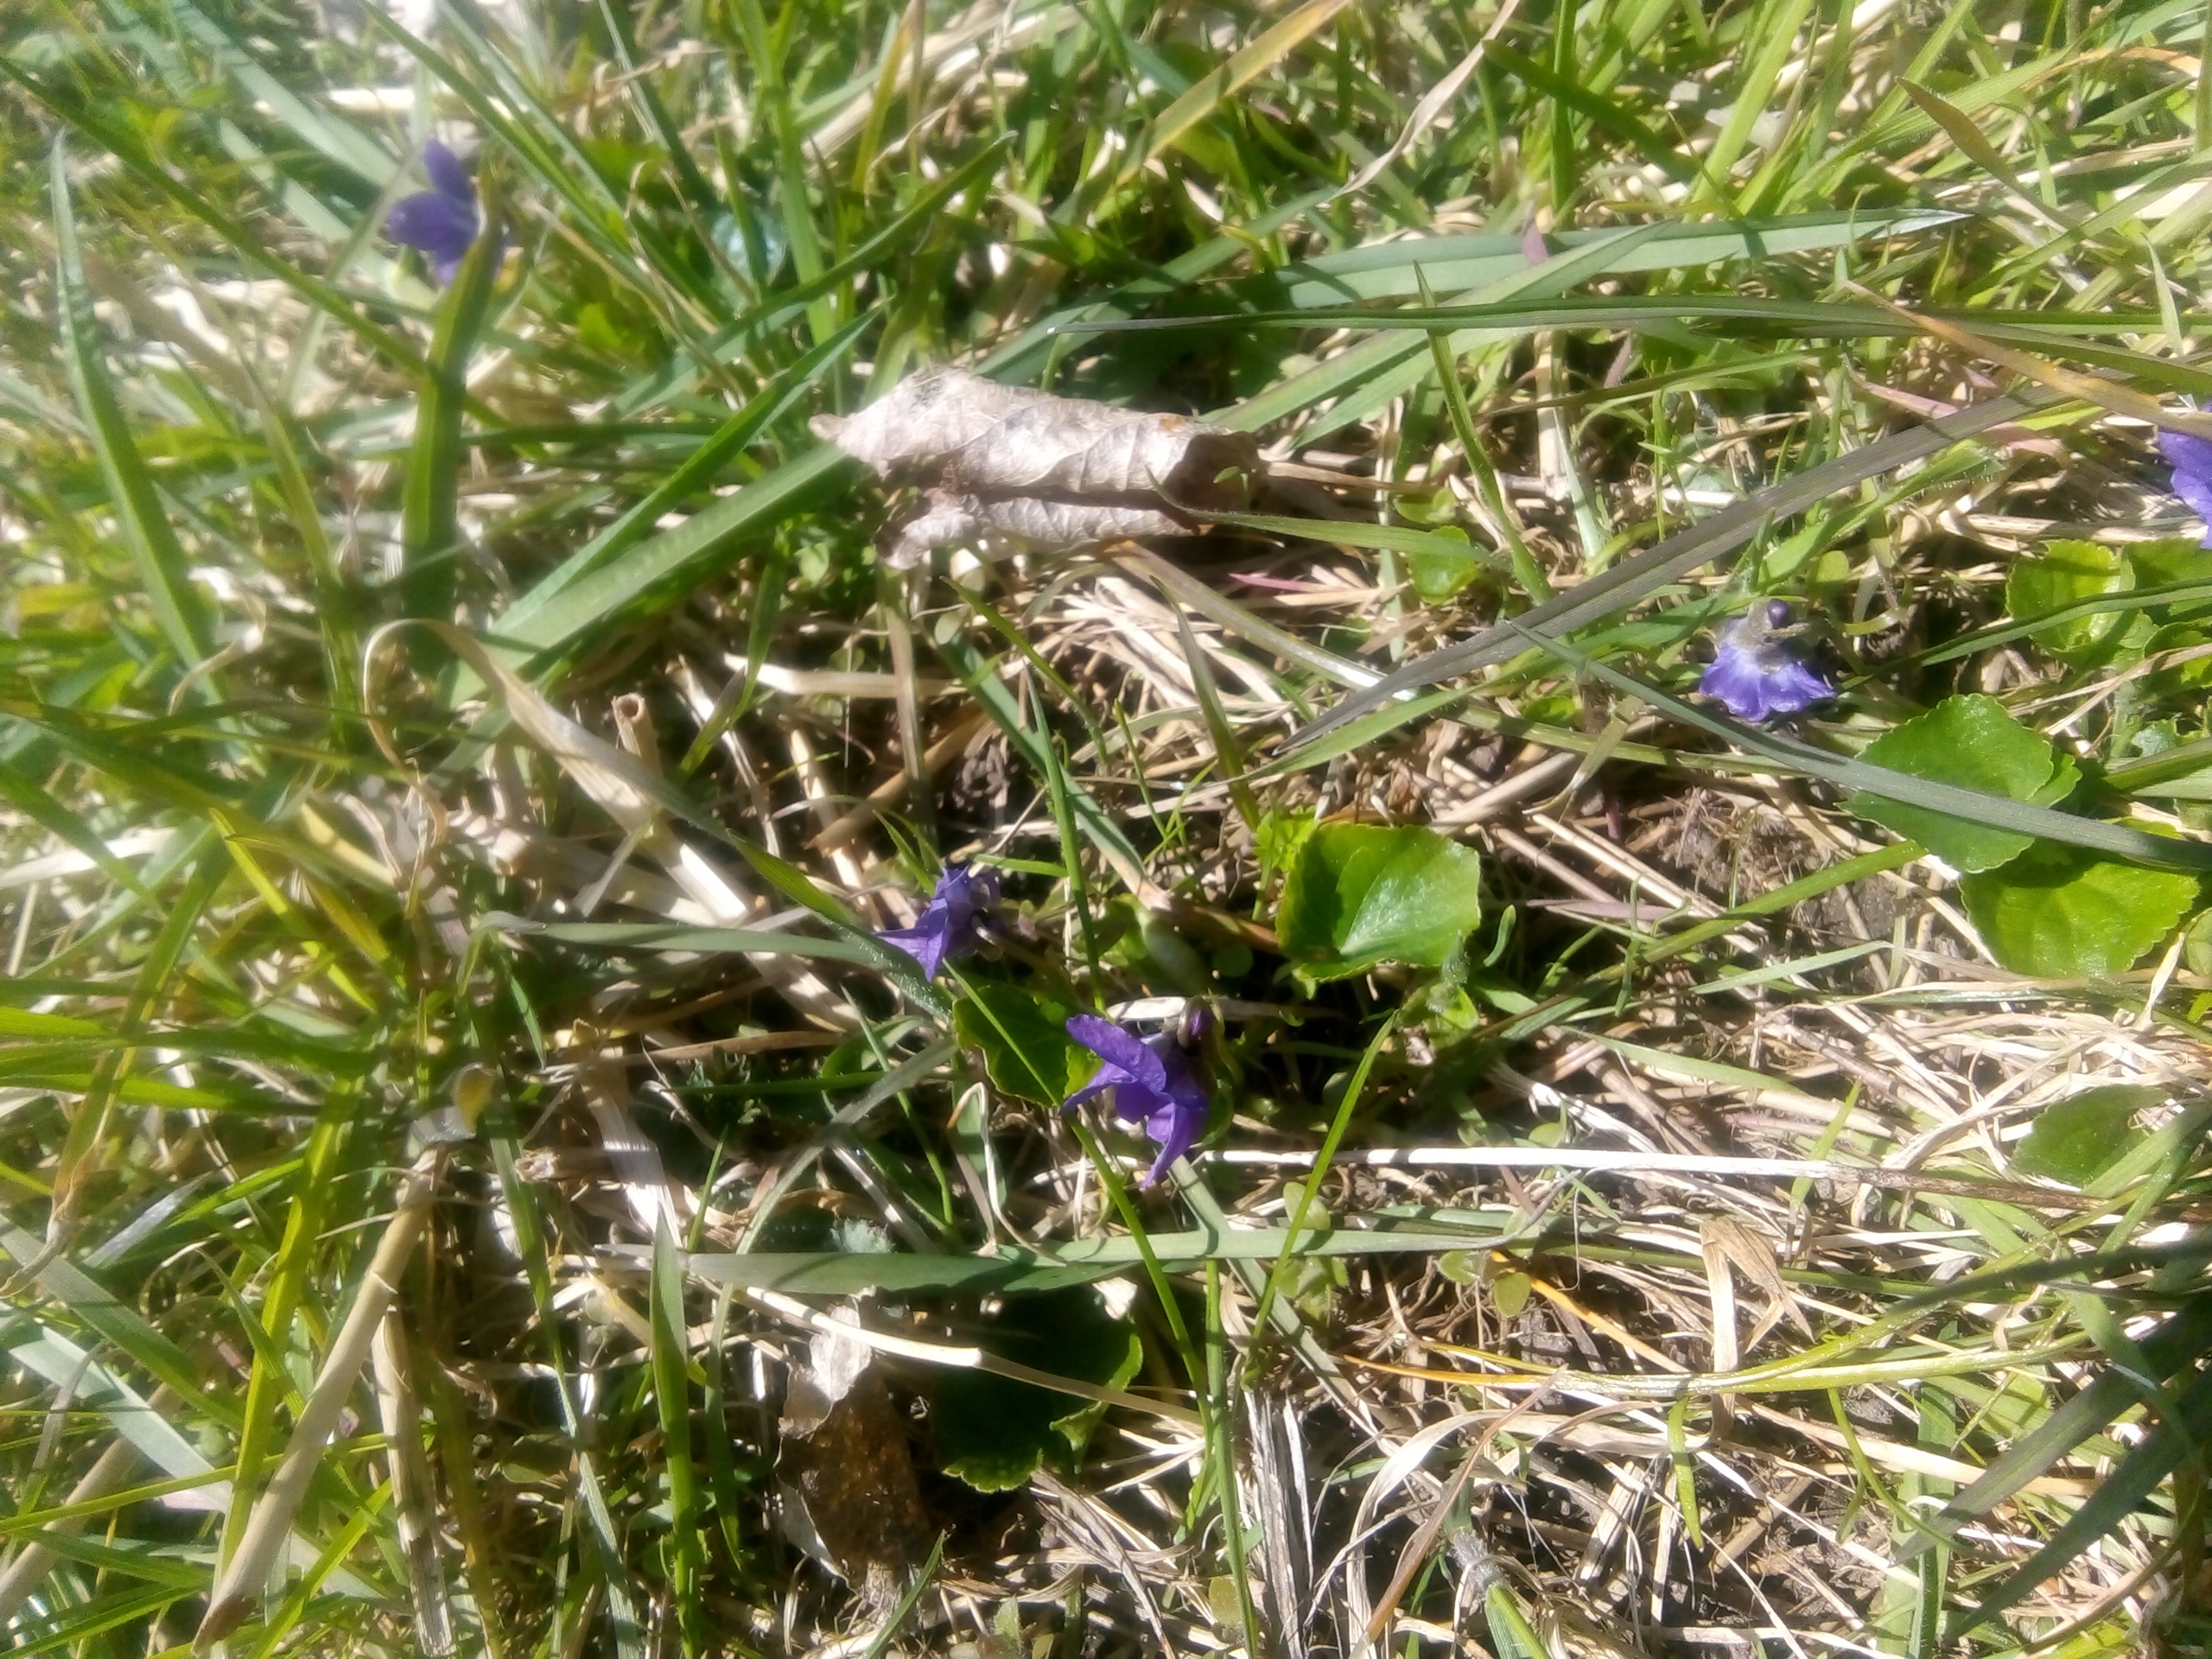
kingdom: Plantae
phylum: Tracheophyta
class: Magnoliopsida
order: Malpighiales
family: Violaceae
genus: Viola
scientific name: Viola odorata
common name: Marts-viol
